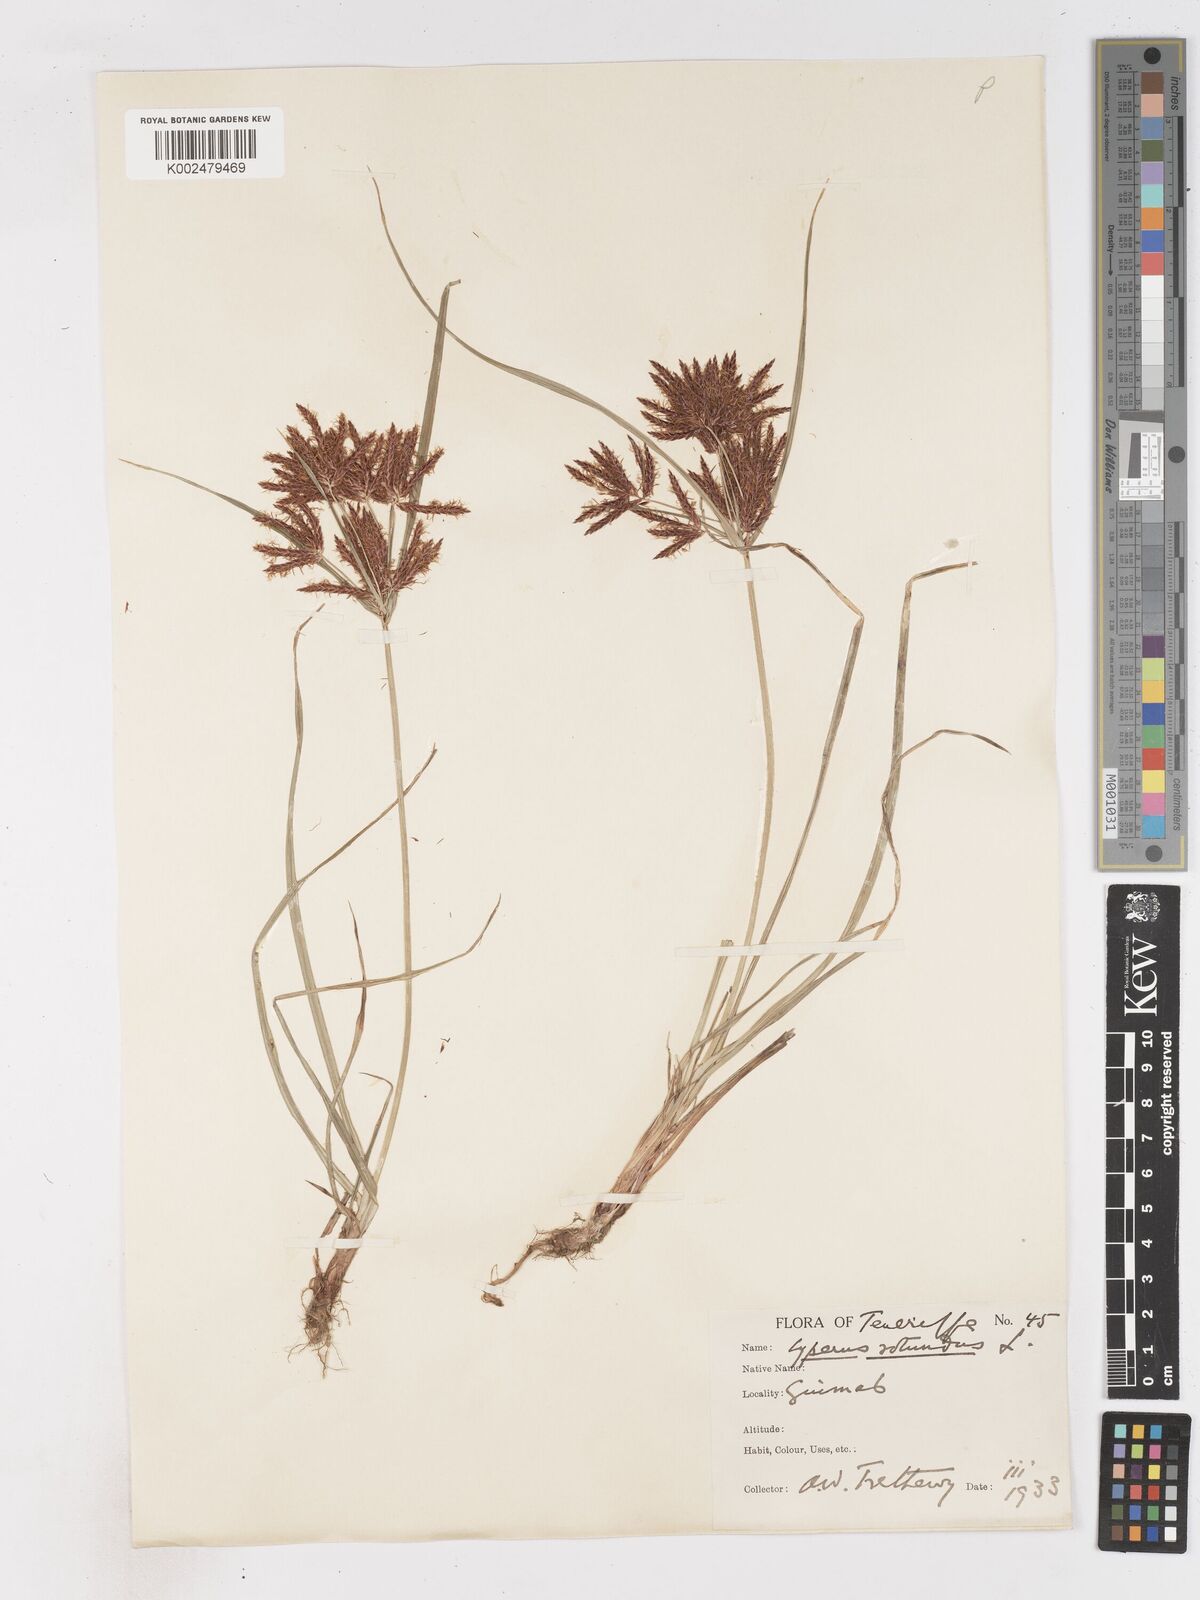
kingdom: Plantae
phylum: Tracheophyta
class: Liliopsida
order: Poales
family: Cyperaceae
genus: Cyperus
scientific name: Cyperus rotundus
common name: Nutgrass
